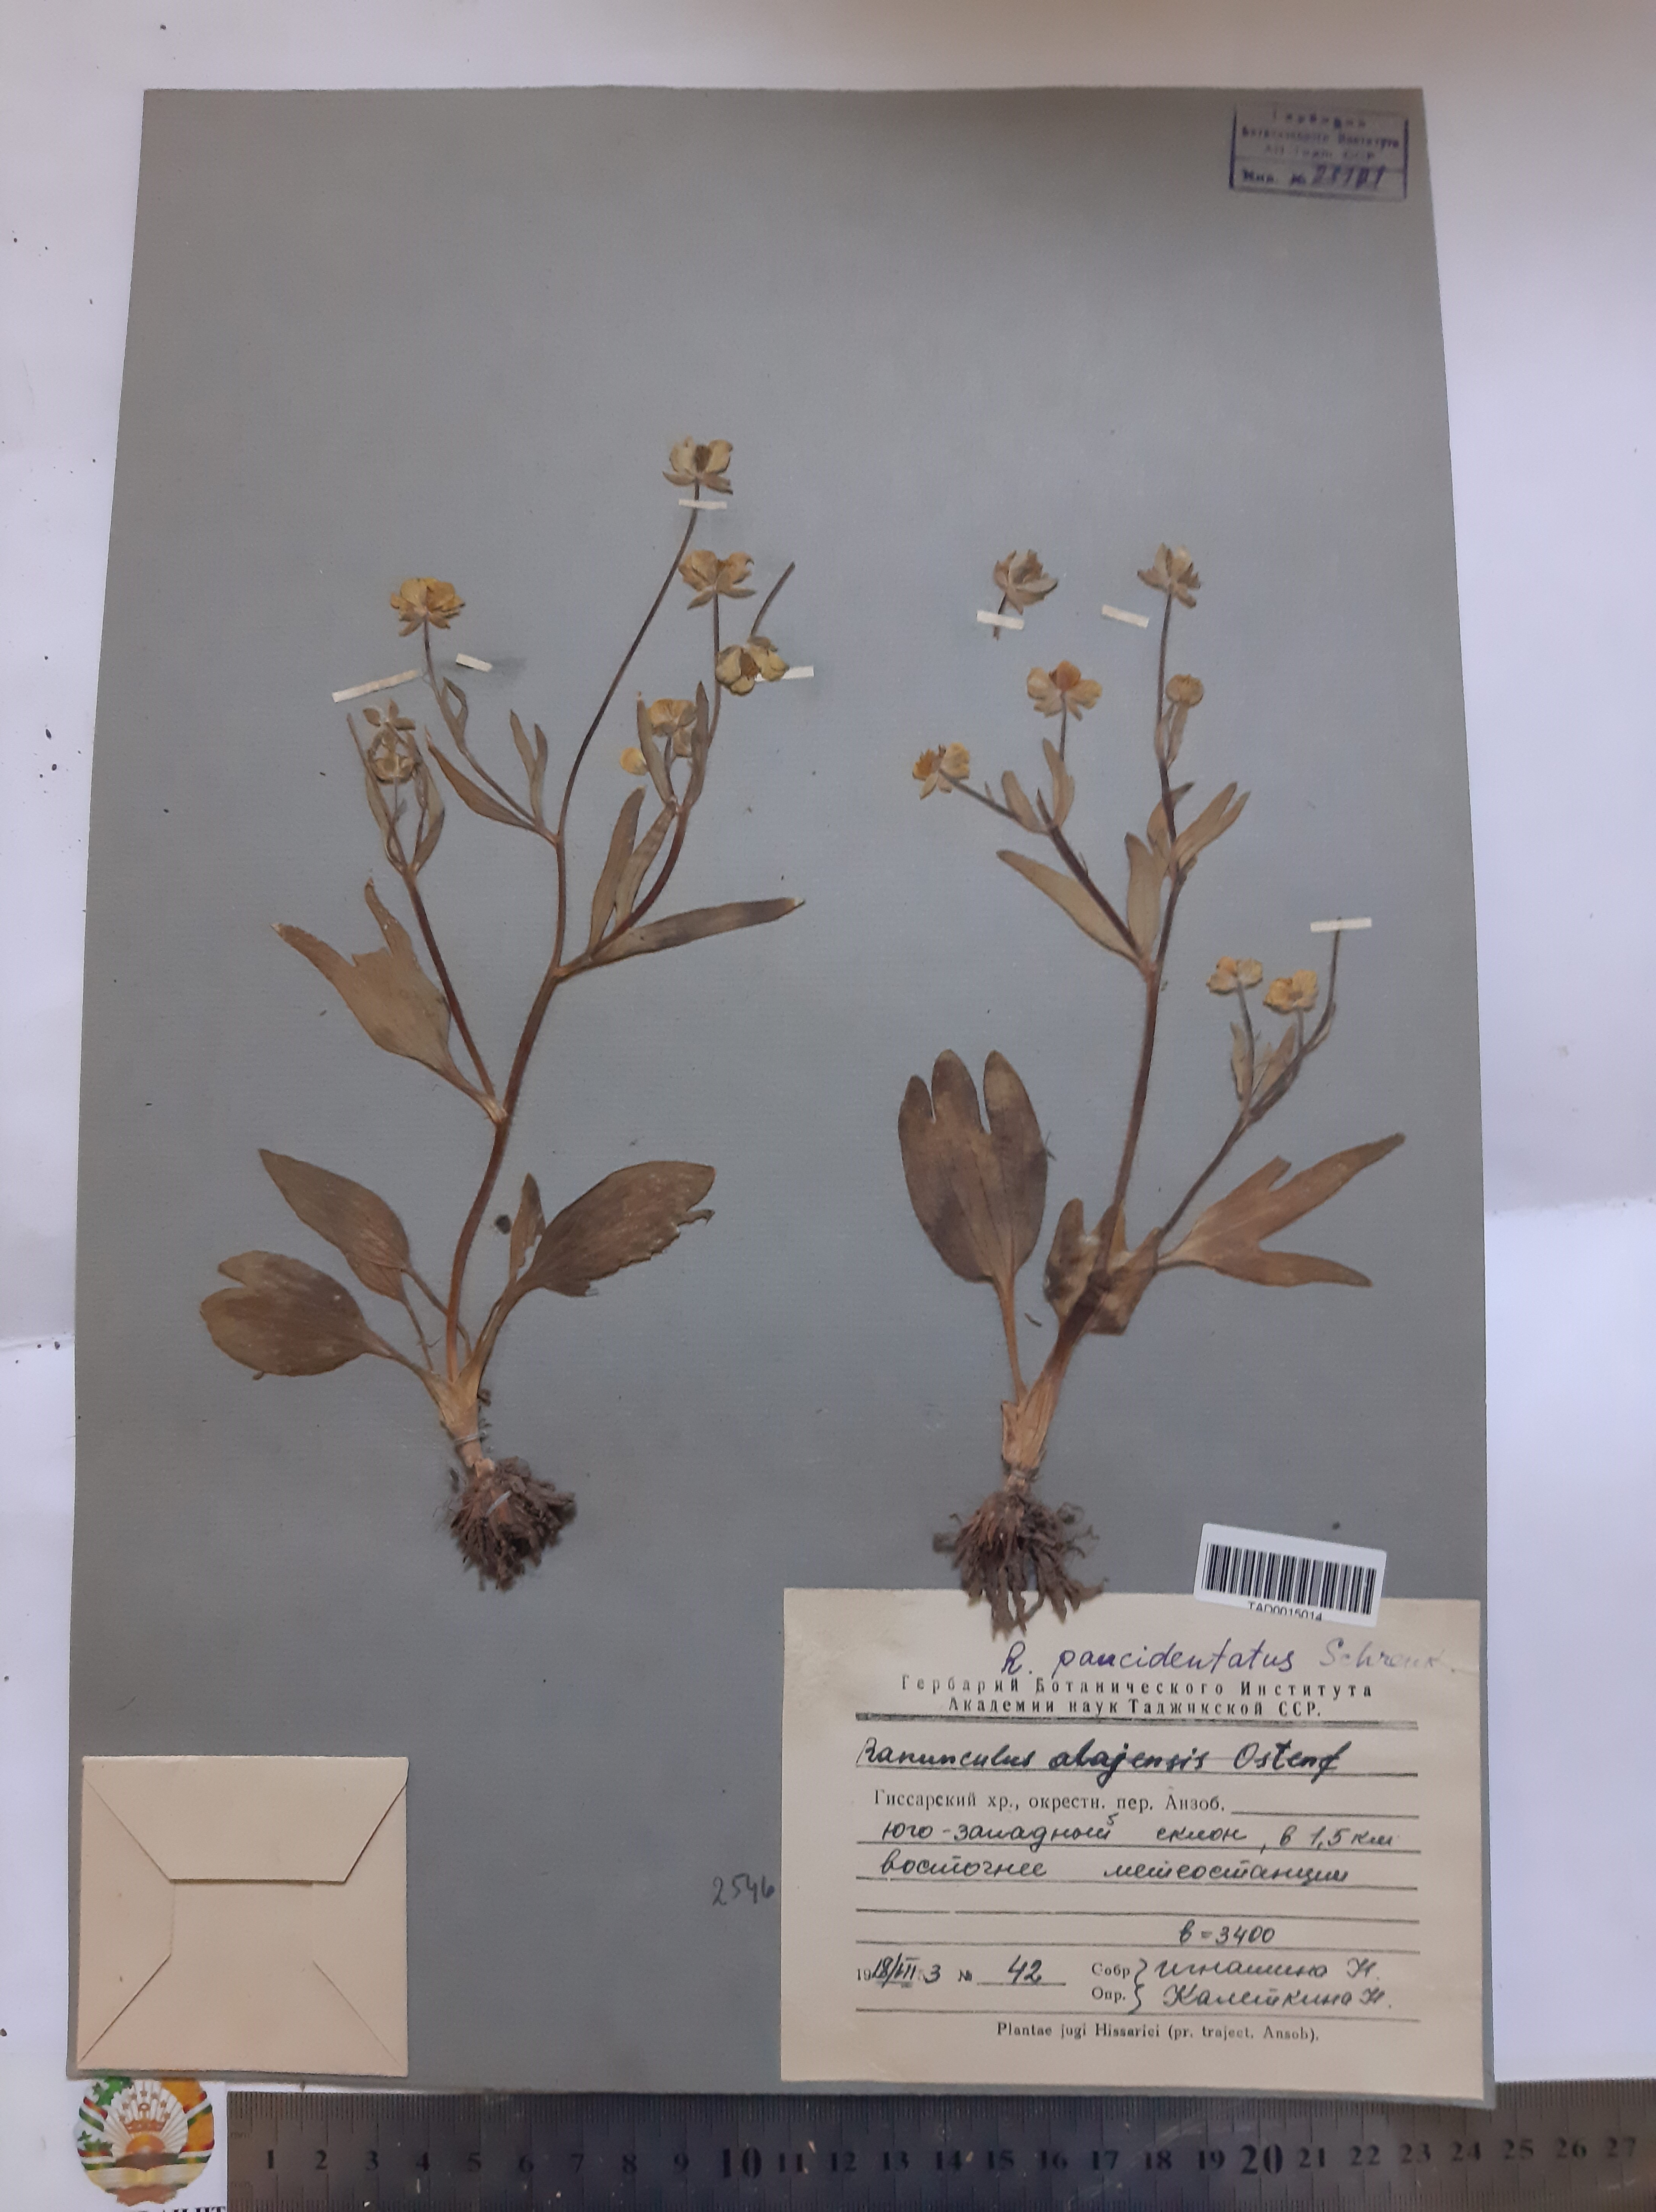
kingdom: Plantae
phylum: Tracheophyta
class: Magnoliopsida
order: Ranunculales
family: Ranunculaceae
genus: Ranunculus
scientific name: Ranunculus paucidentatus
